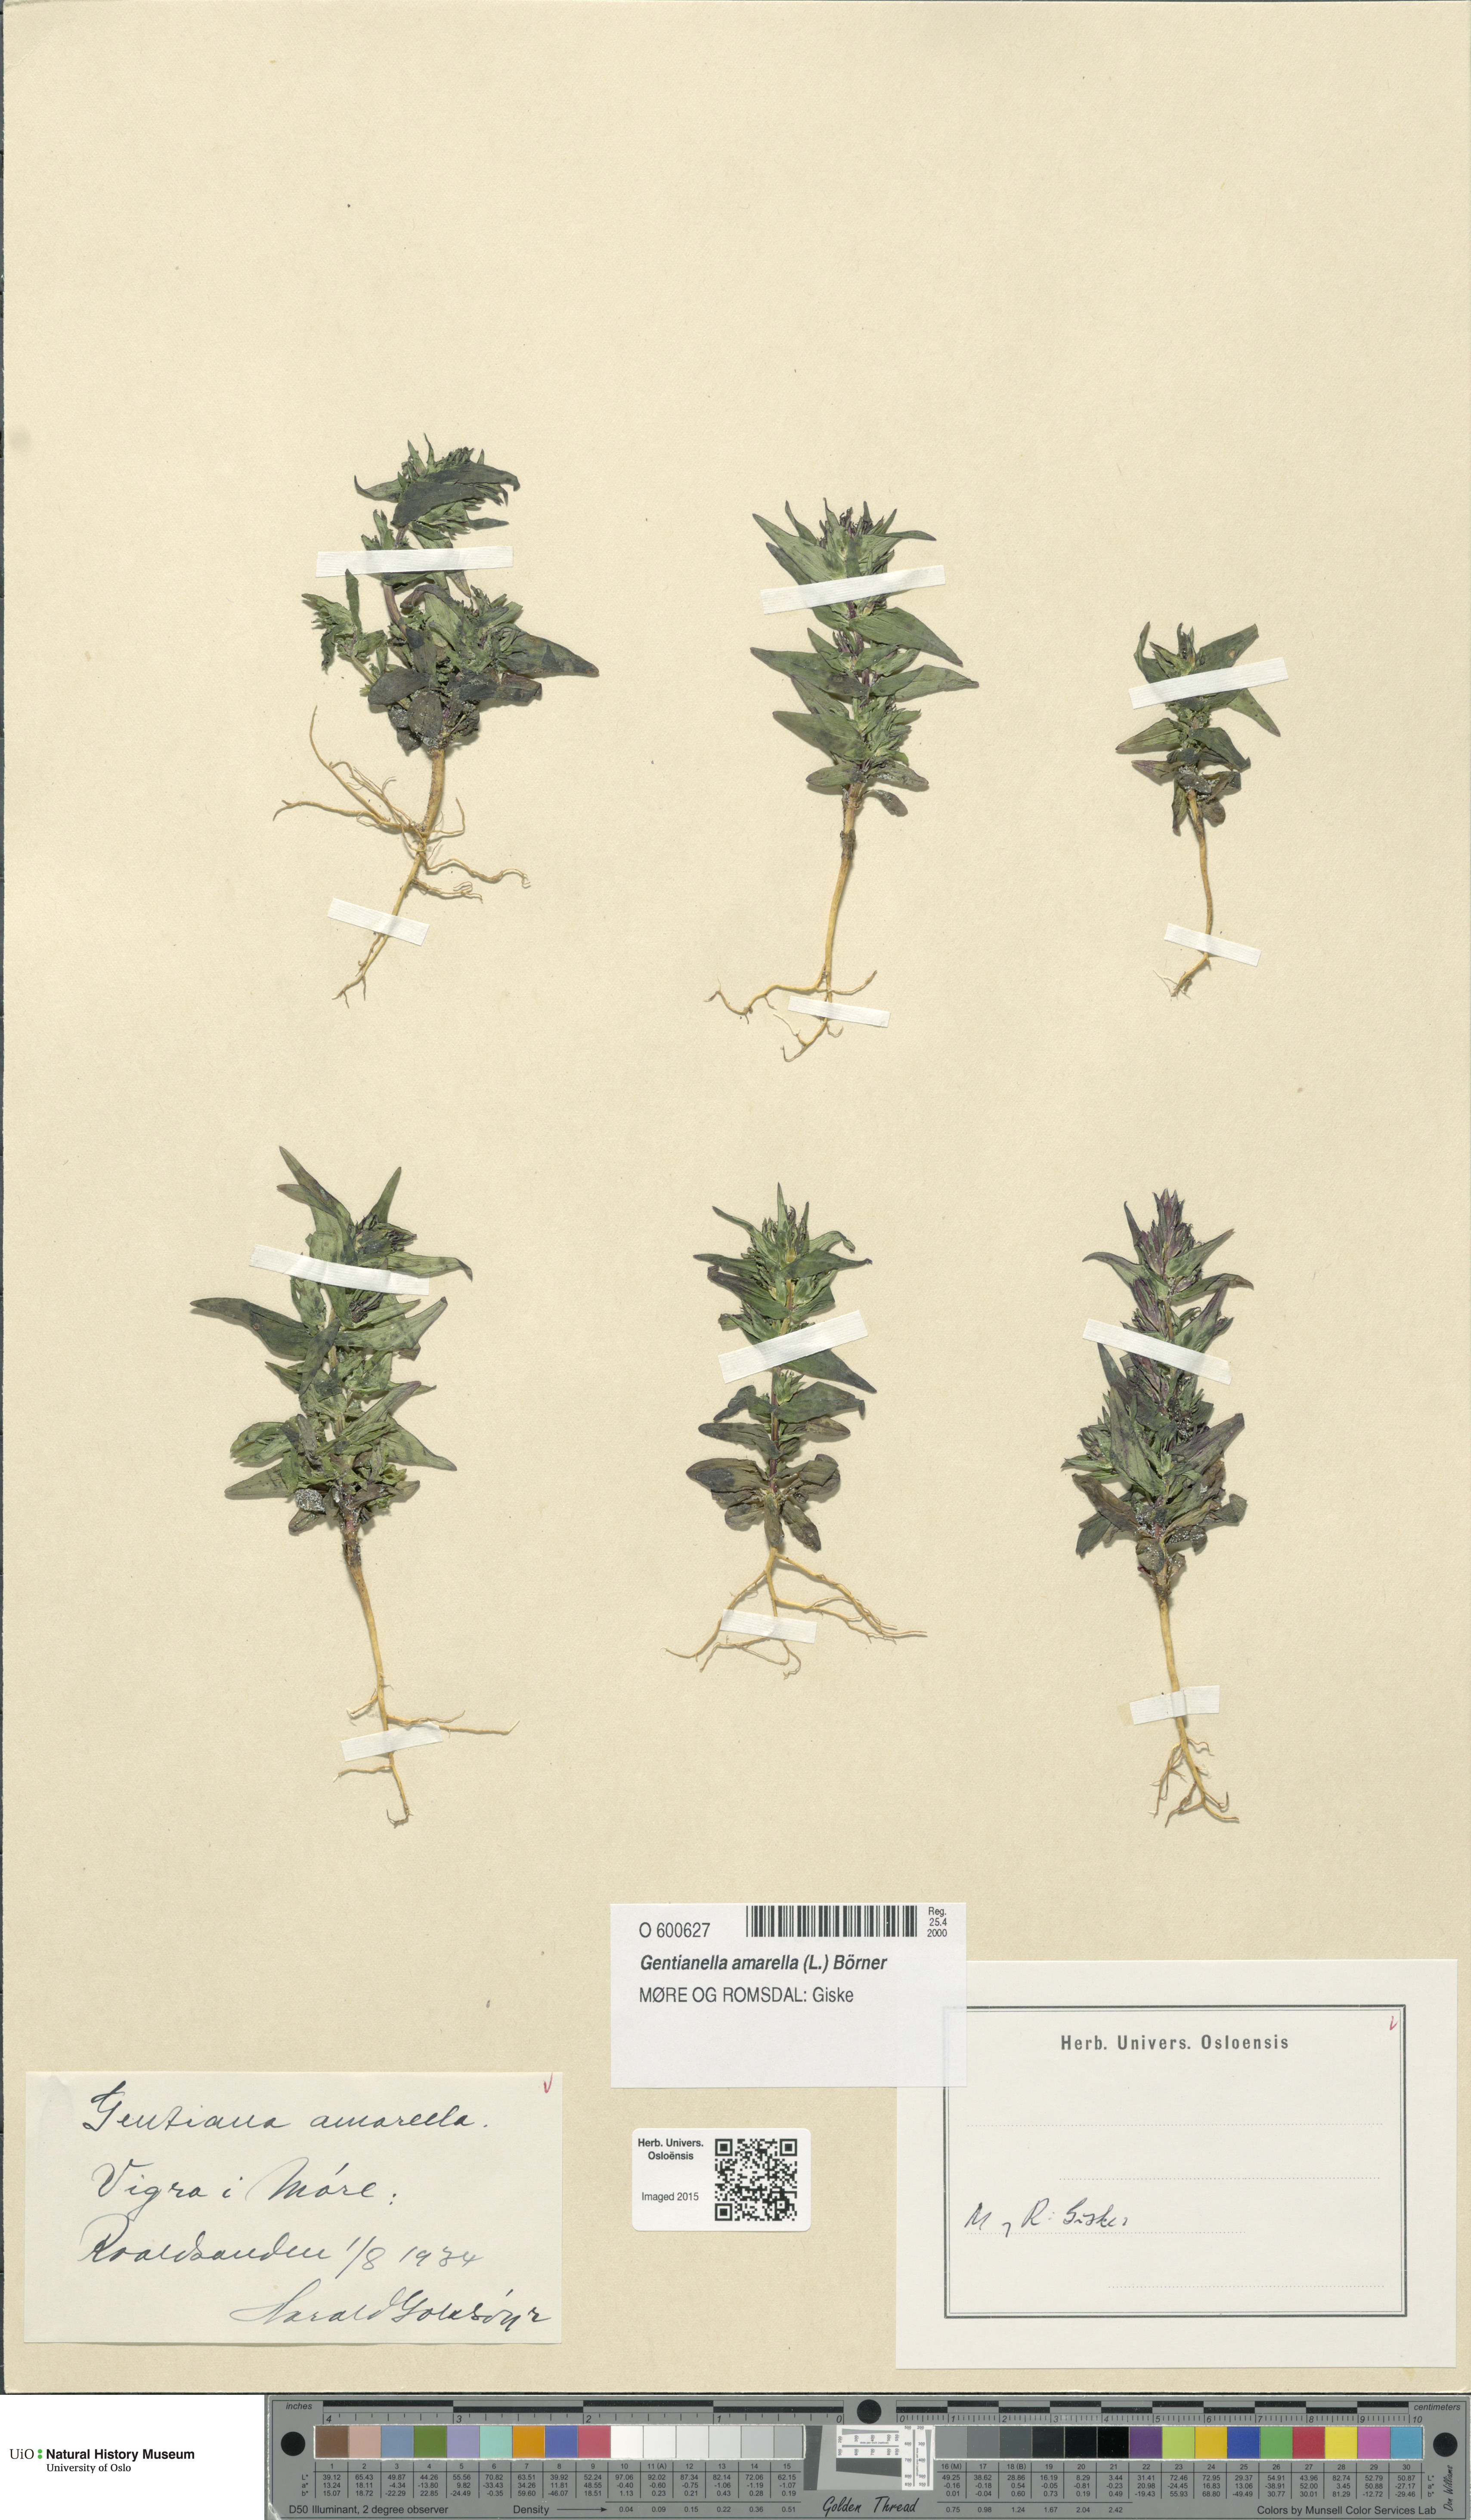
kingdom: Plantae
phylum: Tracheophyta
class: Magnoliopsida
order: Gentianales
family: Gentianaceae
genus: Gentianella
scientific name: Gentianella amarella
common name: Autumn gentian
